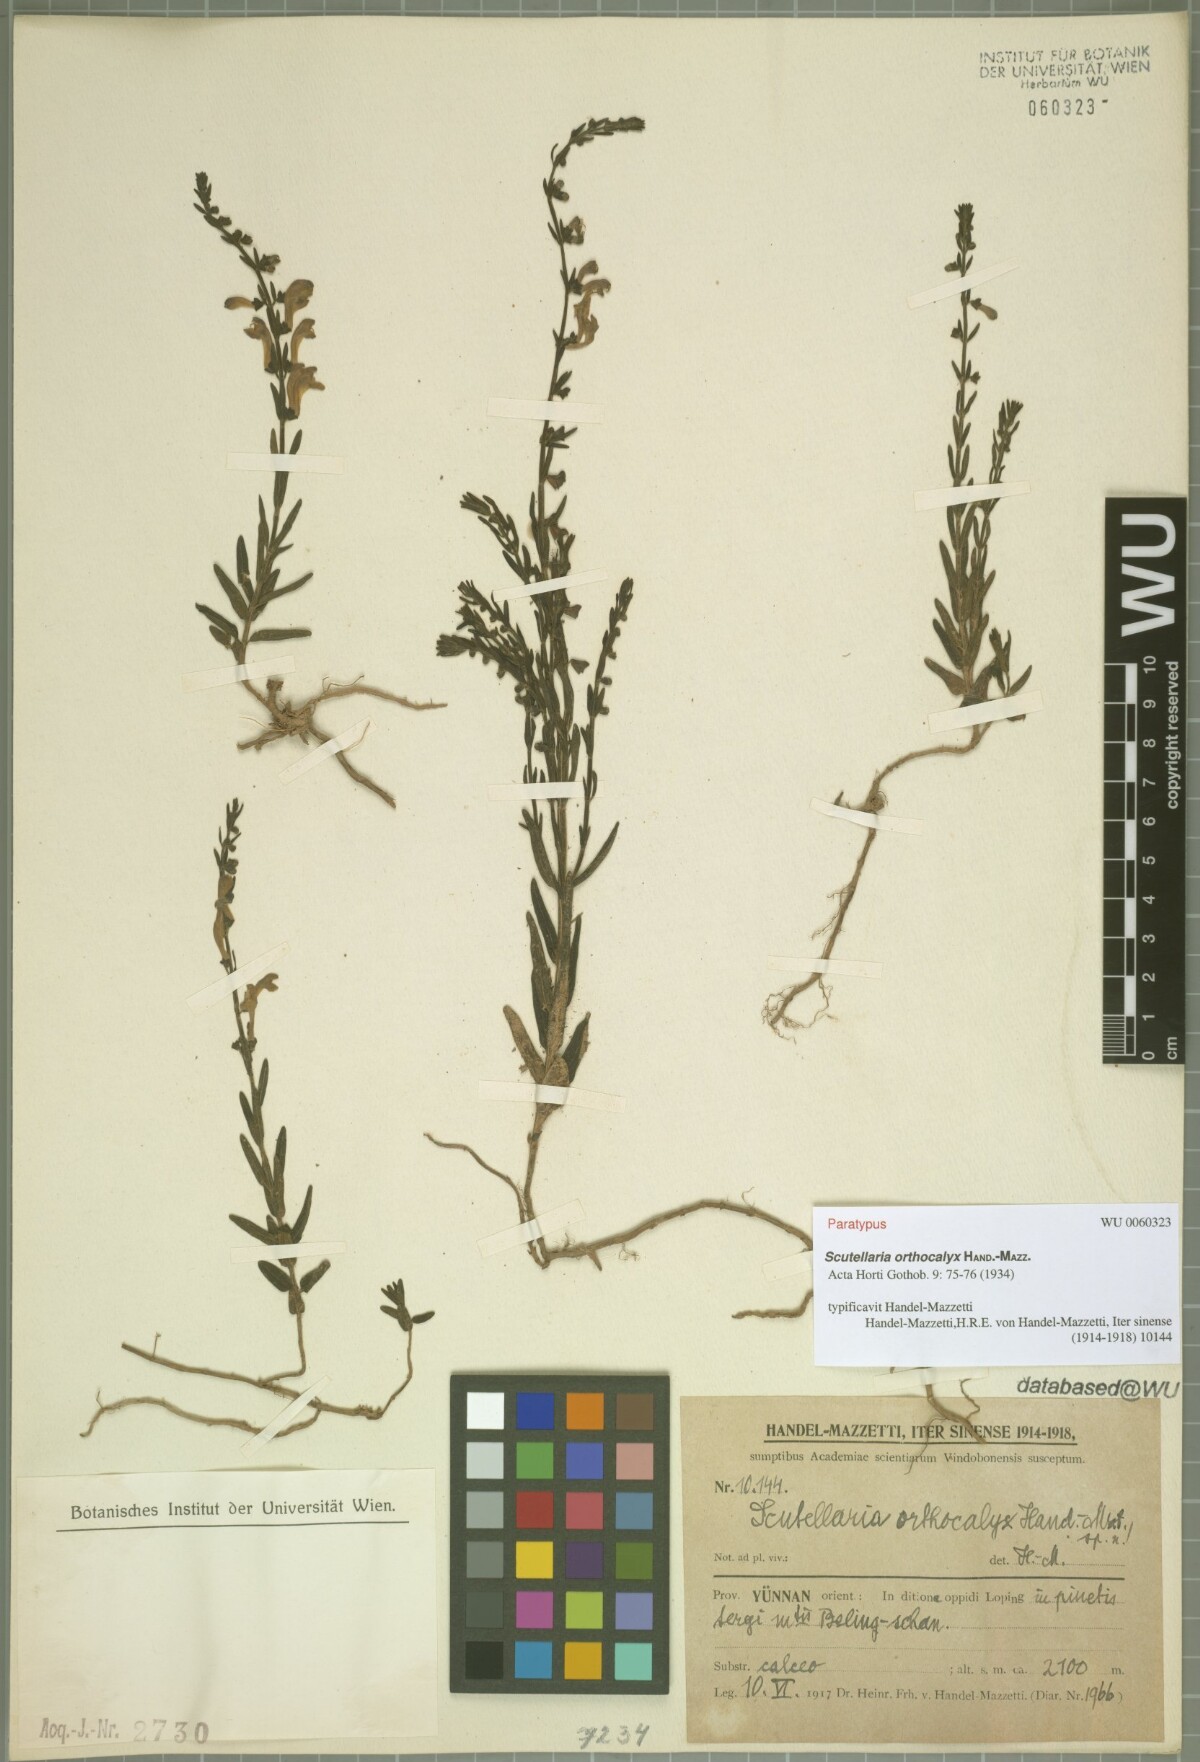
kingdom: Plantae
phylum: Tracheophyta
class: Magnoliopsida
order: Lamiales
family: Lamiaceae
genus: Scutellaria
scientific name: Scutellaria orthocalyx
